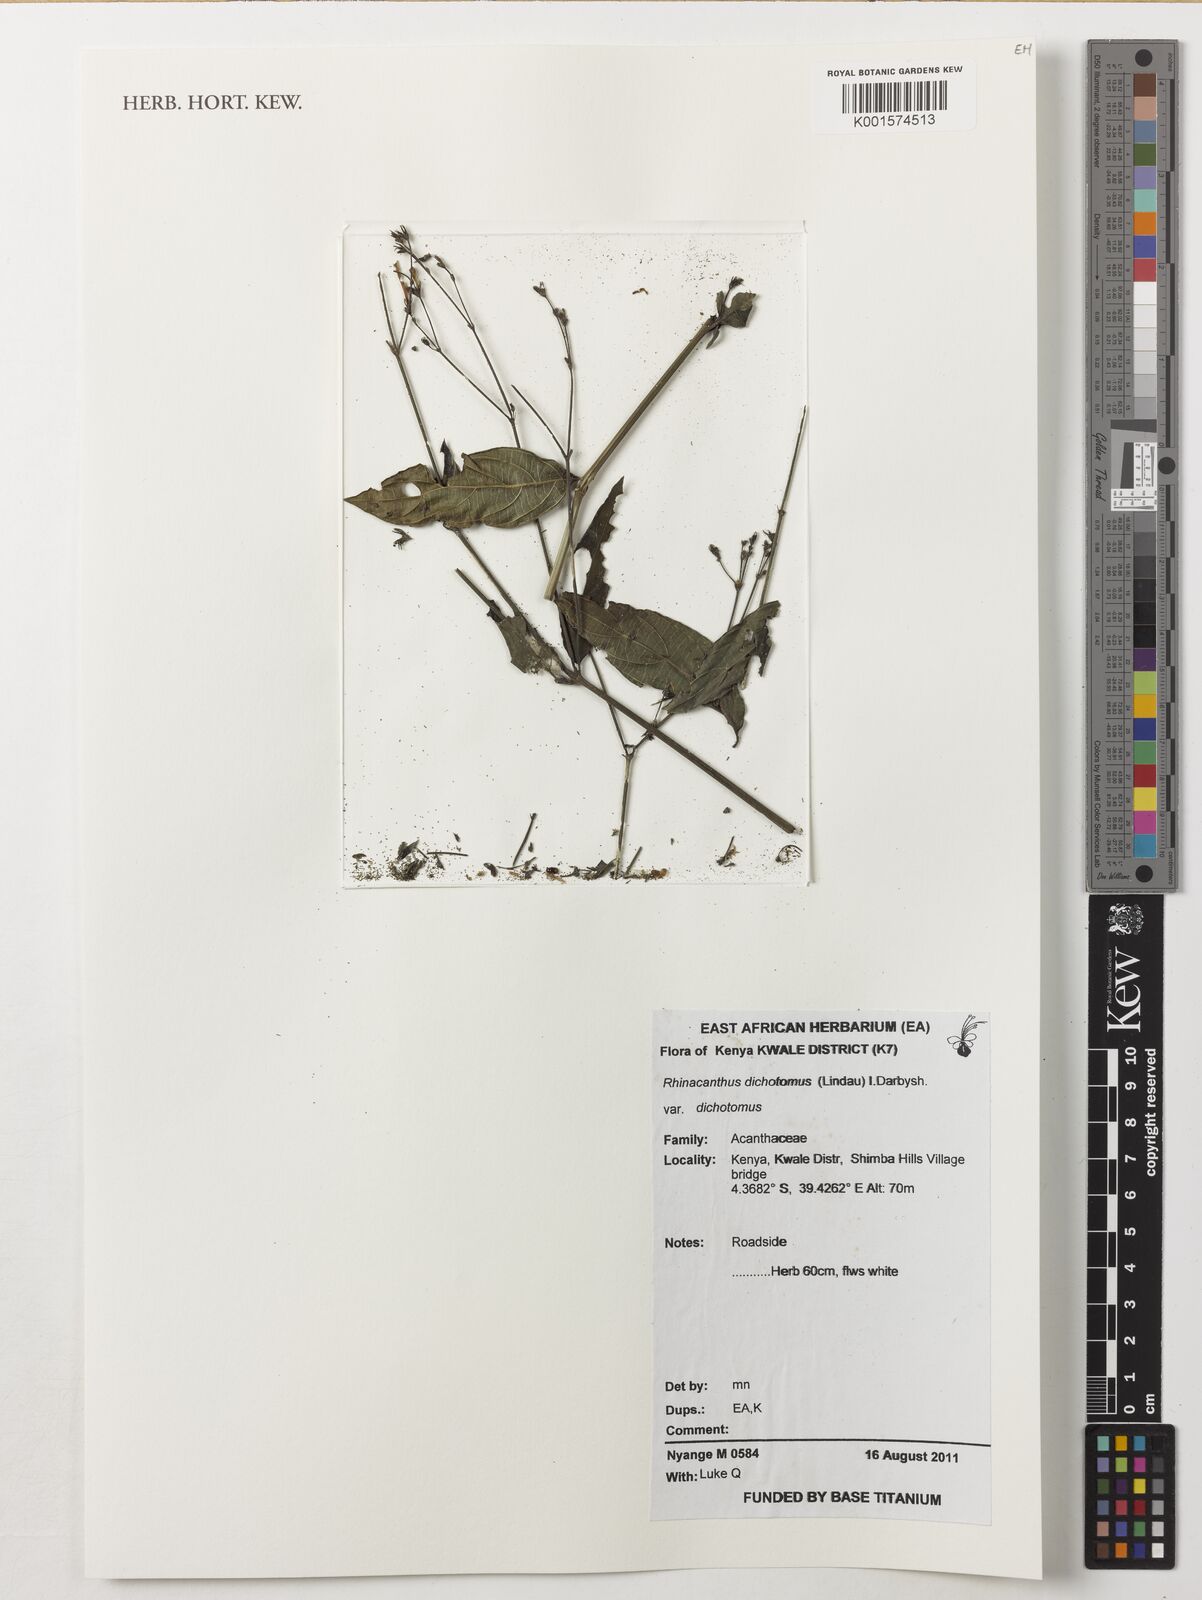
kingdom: Plantae
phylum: Tracheophyta
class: Magnoliopsida
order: Lamiales
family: Acanthaceae
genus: Rhinacanthus
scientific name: Rhinacanthus dichotomus
